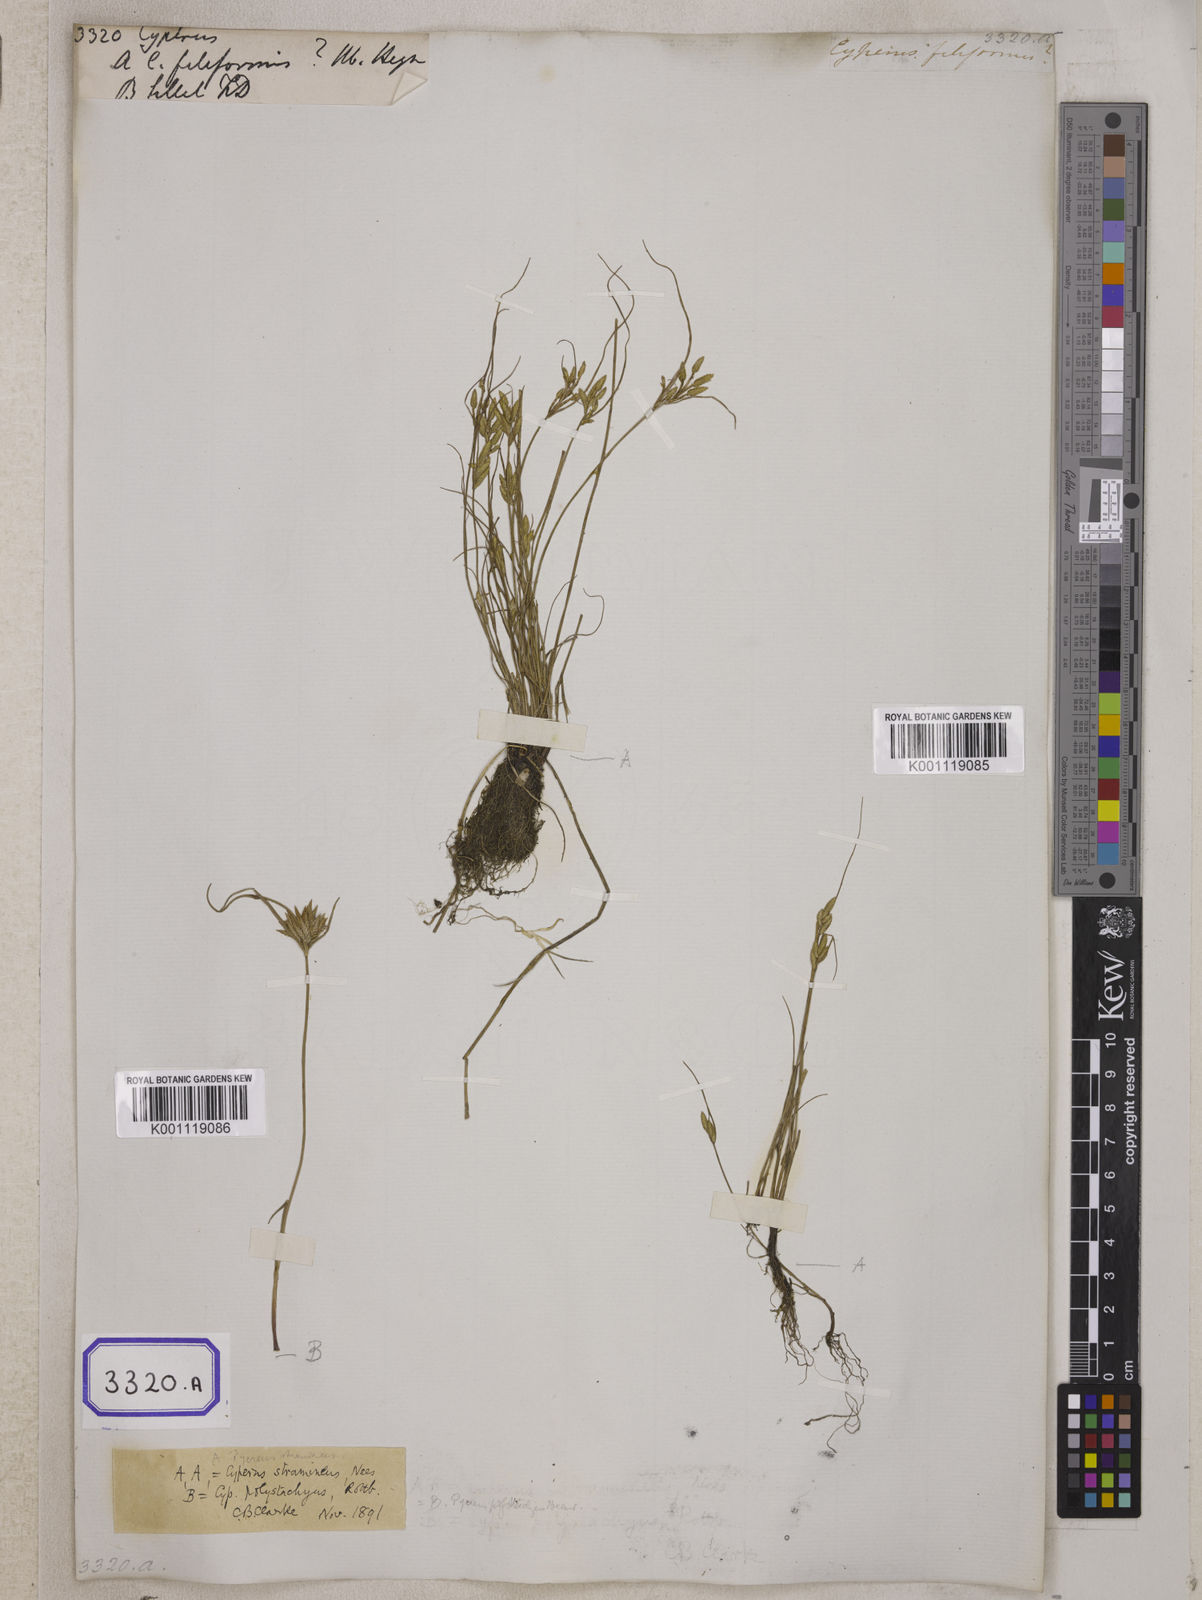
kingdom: Plantae
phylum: Tracheophyta
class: Liliopsida
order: Poales
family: Cyperaceae
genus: Cyperus
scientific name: Cyperus
